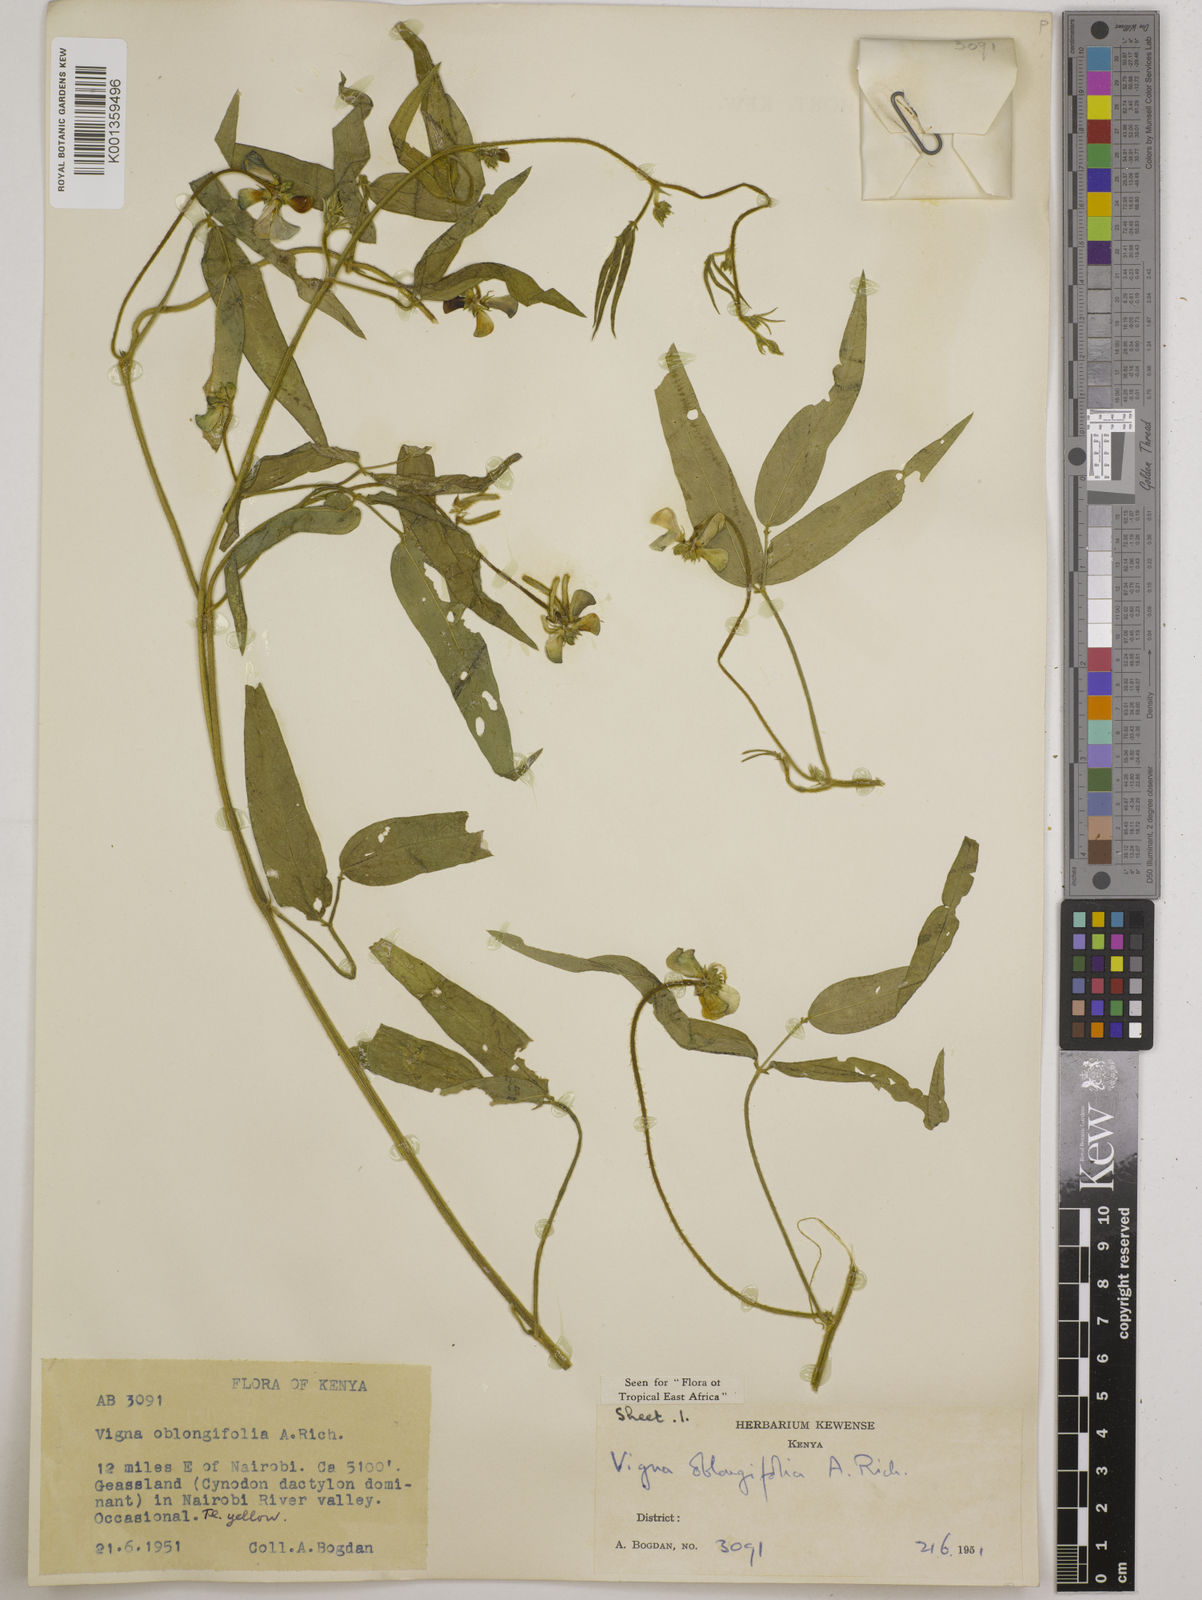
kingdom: Plantae
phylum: Tracheophyta
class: Magnoliopsida
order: Fabales
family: Fabaceae
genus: Vigna
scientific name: Vigna oblongifolia
